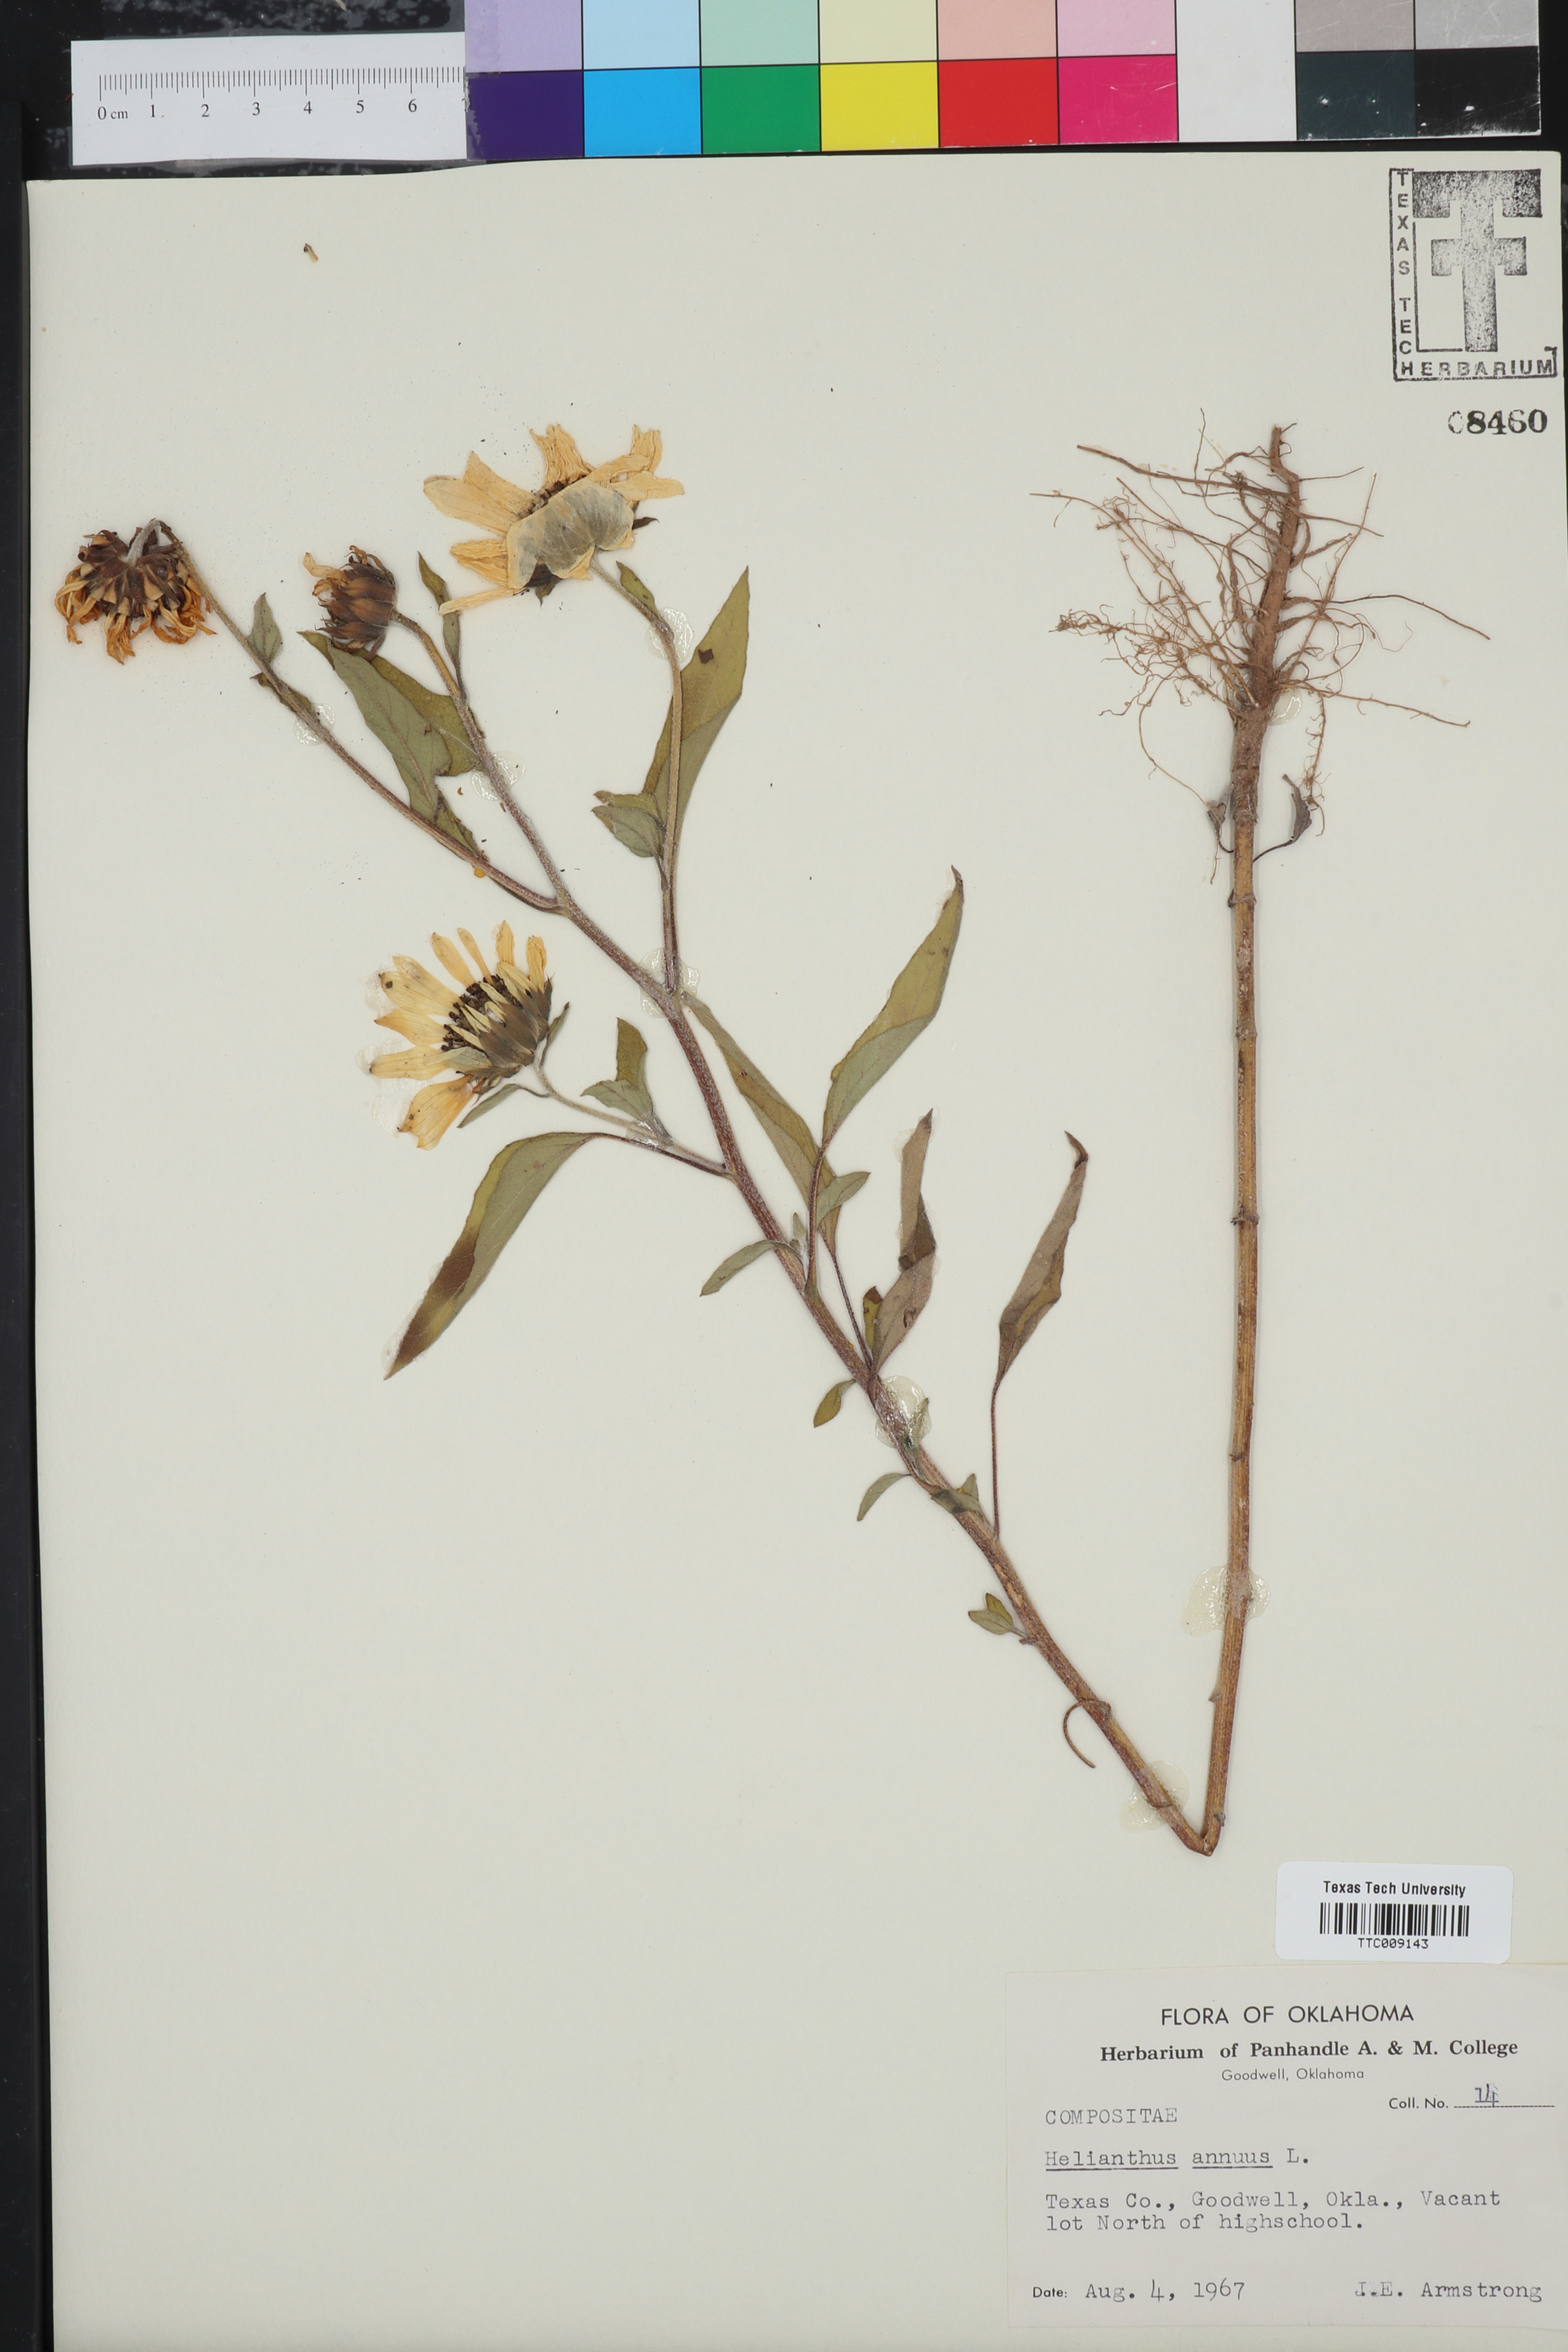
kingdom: Plantae
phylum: Tracheophyta
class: Magnoliopsida
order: Asterales
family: Asteraceae
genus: Helianthus
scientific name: Helianthus annuus
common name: Sunflower
